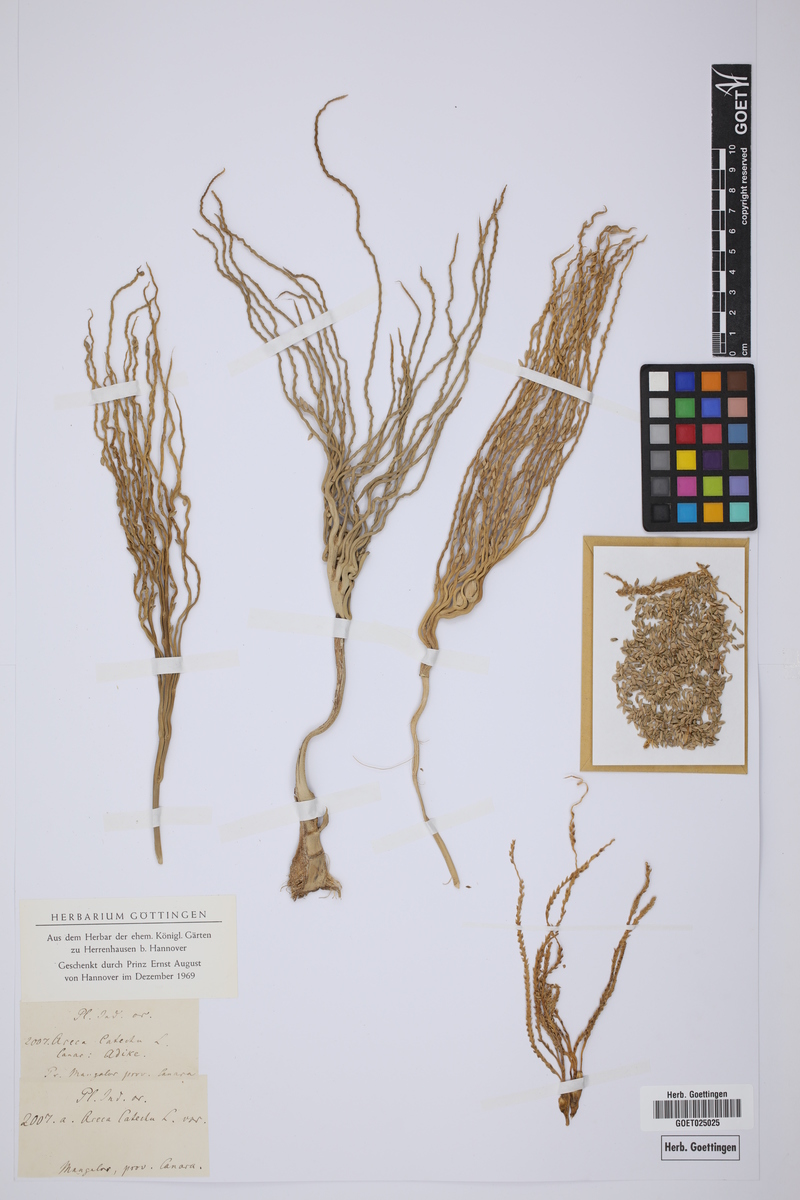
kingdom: Plantae
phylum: Tracheophyta
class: Liliopsida
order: Arecales
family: Arecaceae
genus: Areca
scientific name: Areca catechu
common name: Indian-nut
